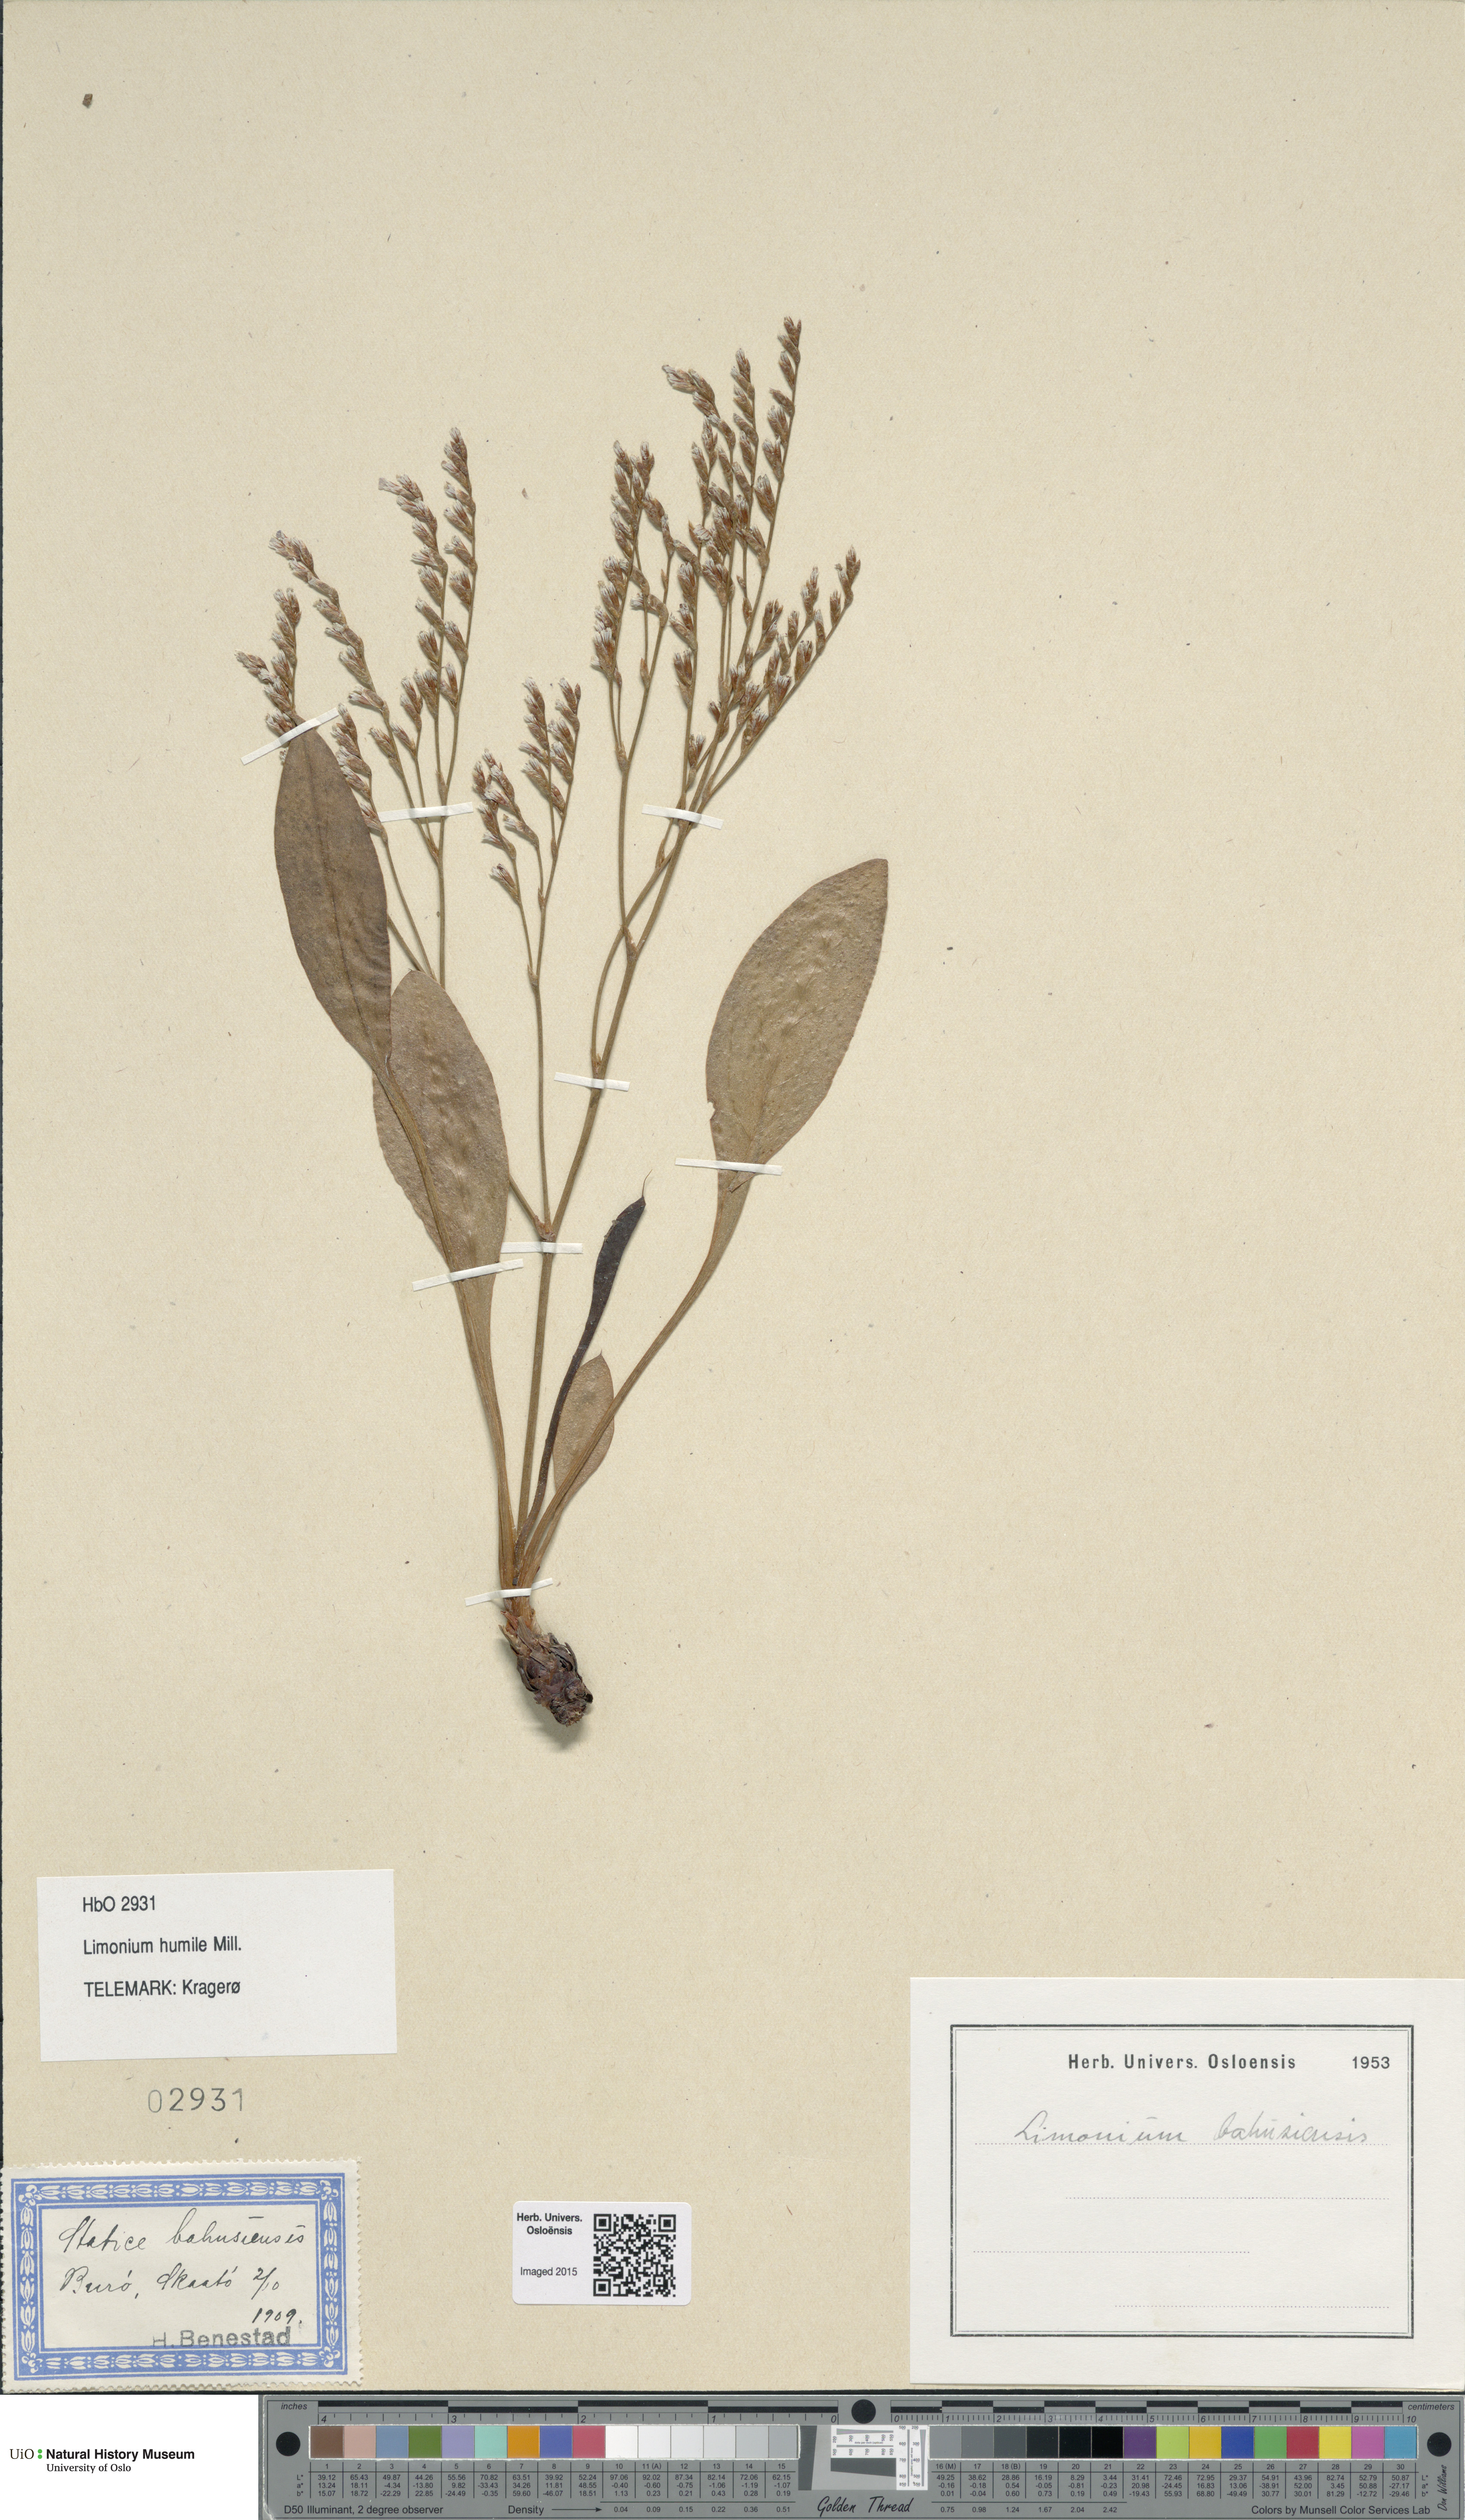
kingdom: Plantae
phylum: Tracheophyta
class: Magnoliopsida
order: Caryophyllales
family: Plumbaginaceae
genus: Limonium
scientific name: Limonium humile
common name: Lax-flowered sea-lavender
